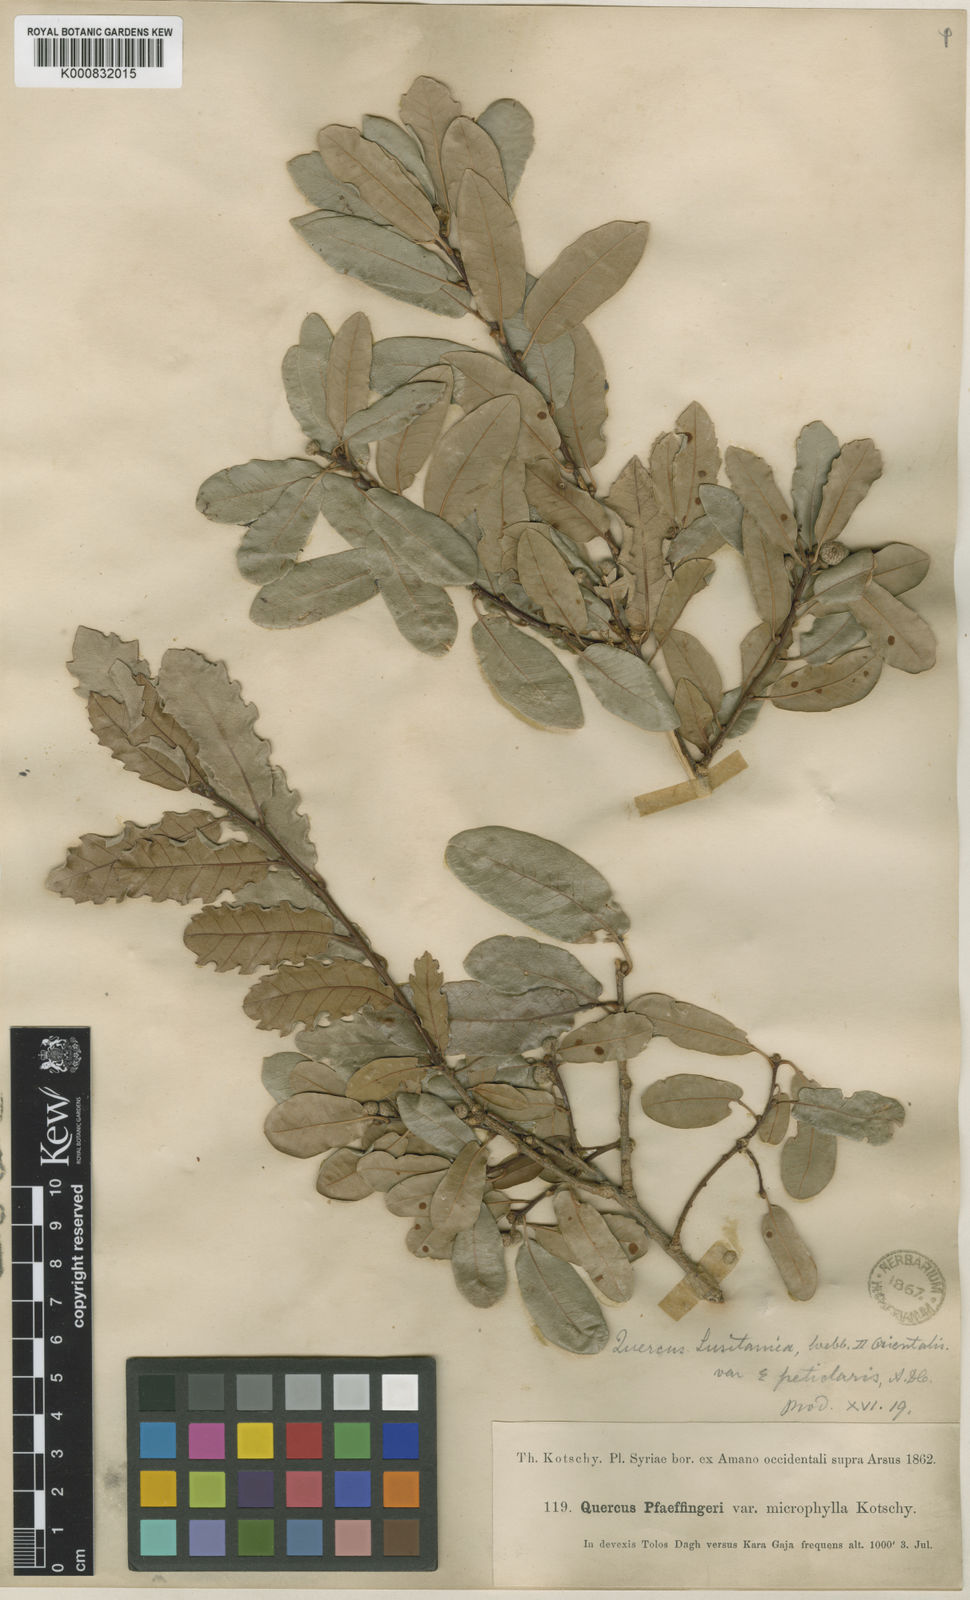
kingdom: Plantae
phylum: Tracheophyta
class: Magnoliopsida
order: Fagales
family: Fagaceae
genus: Quercus
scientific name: Quercus infectoria
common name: Aleppo oak
